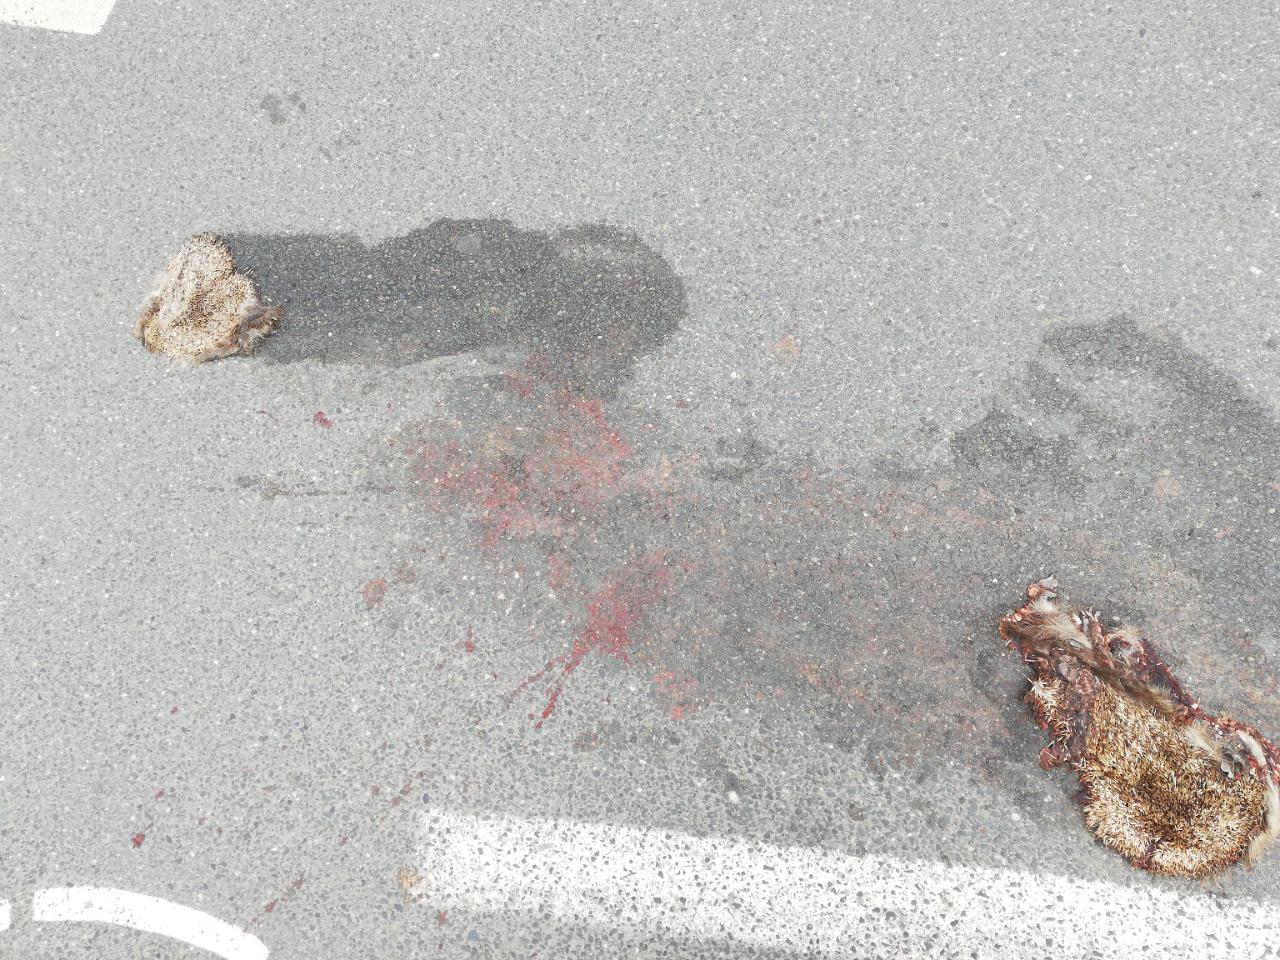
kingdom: Animalia
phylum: Chordata
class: Mammalia
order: Erinaceomorpha
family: Erinaceidae
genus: Erinaceus
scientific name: Erinaceus
